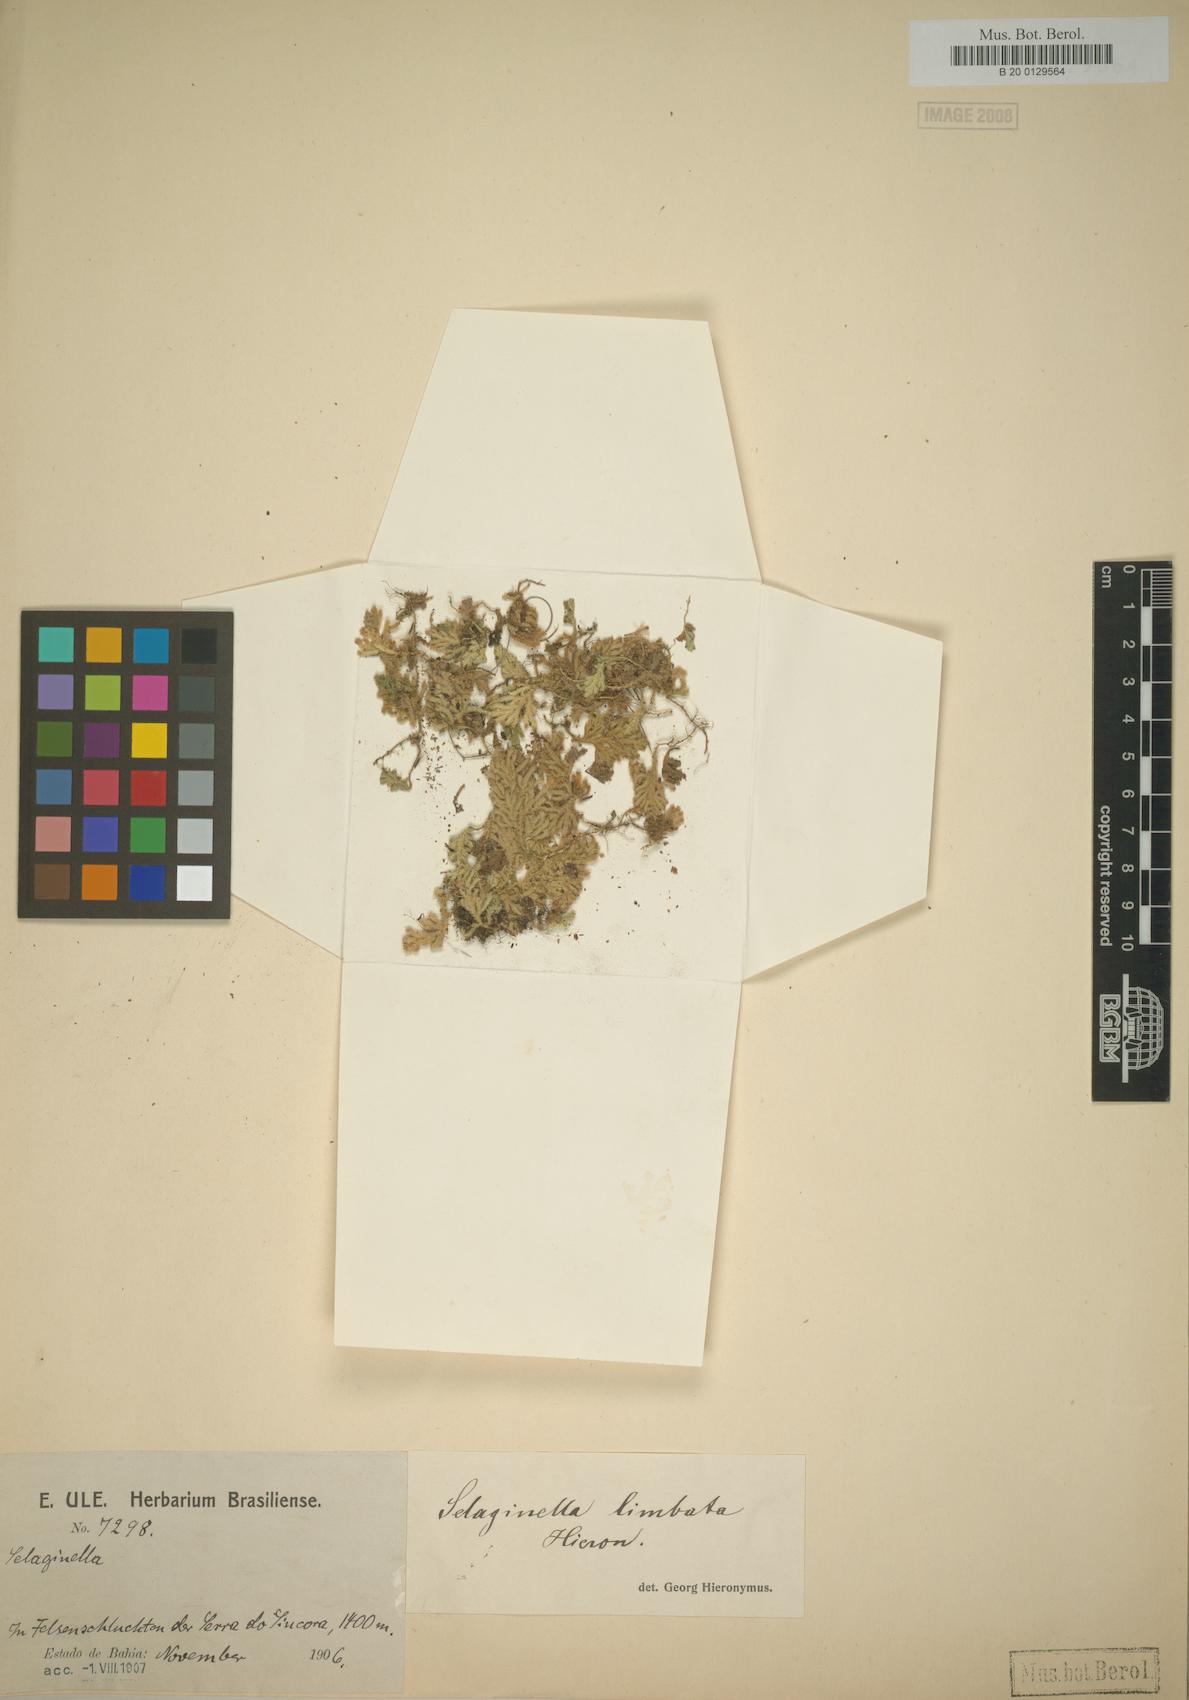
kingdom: Plantae
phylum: Tracheophyta
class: Lycopodiopsida
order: Selaginellales
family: Selaginellaceae
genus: Selaginella
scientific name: Selaginella blepharodella
